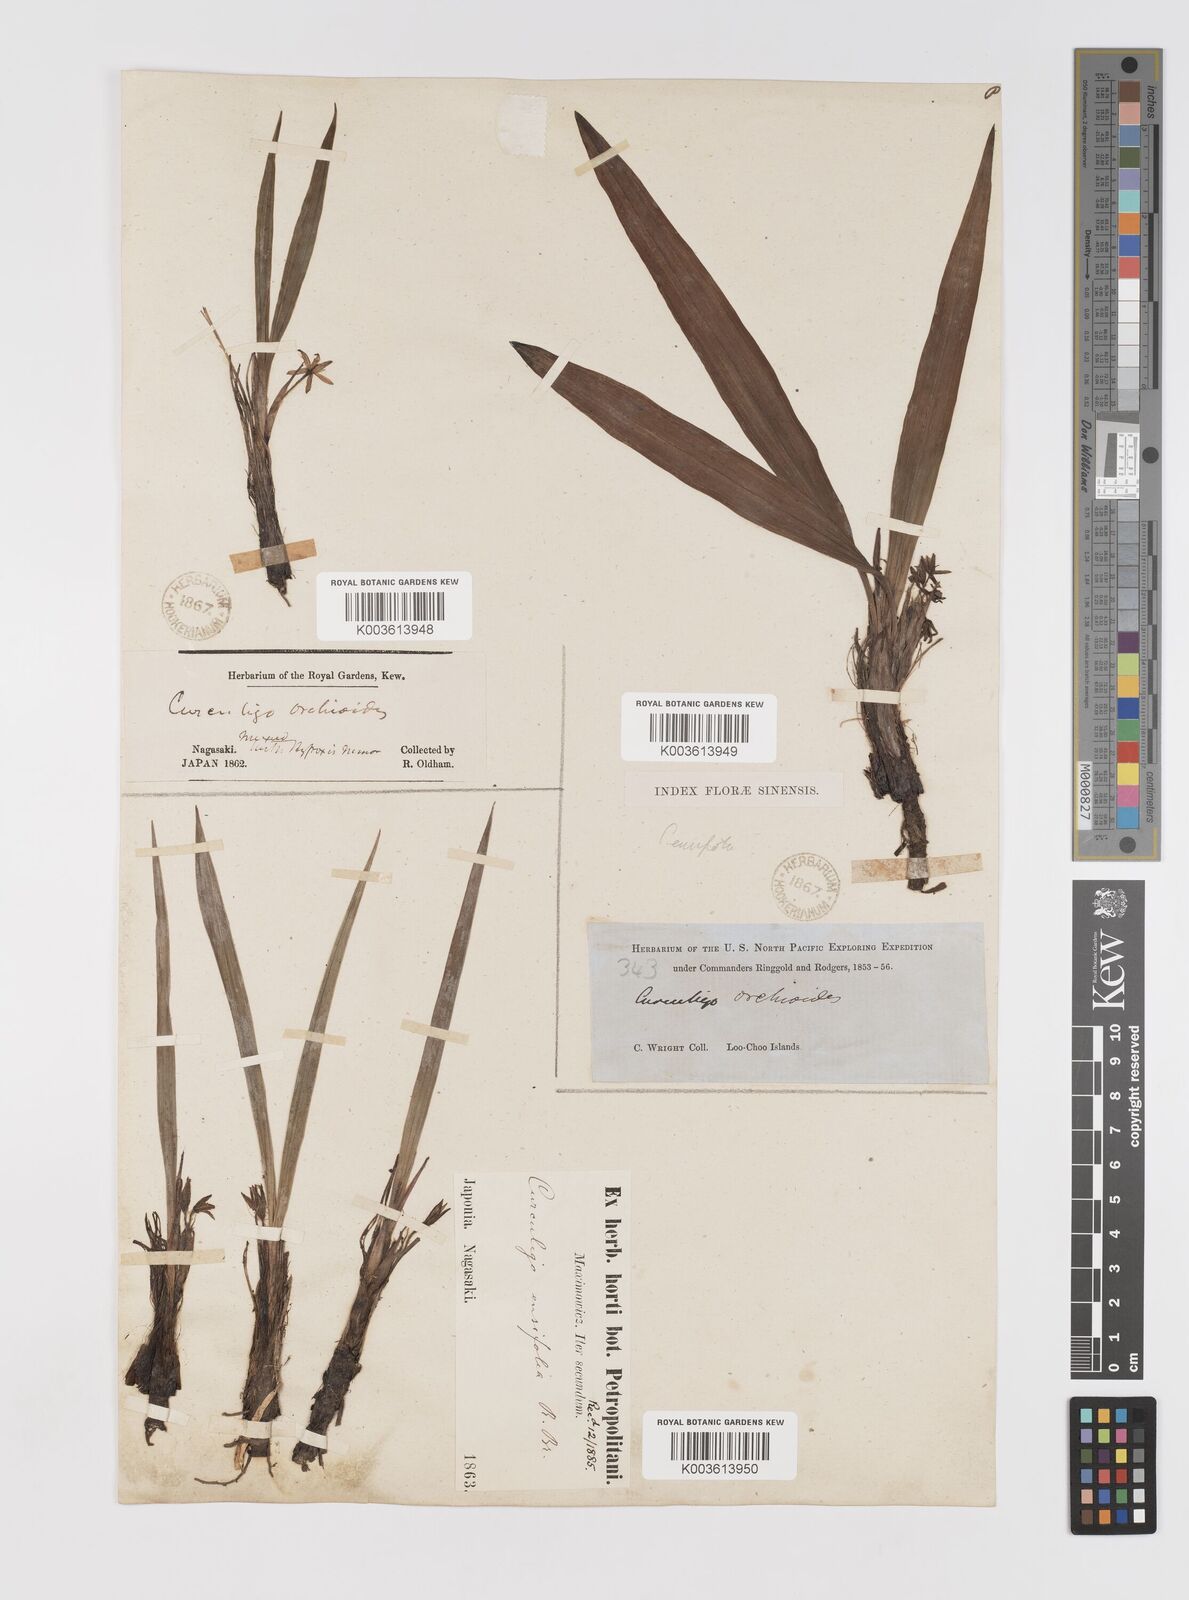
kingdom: Plantae
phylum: Tracheophyta
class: Liliopsida
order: Asparagales
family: Hypoxidaceae
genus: Curculigo
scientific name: Curculigo orchioides
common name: Golden eye-grass
